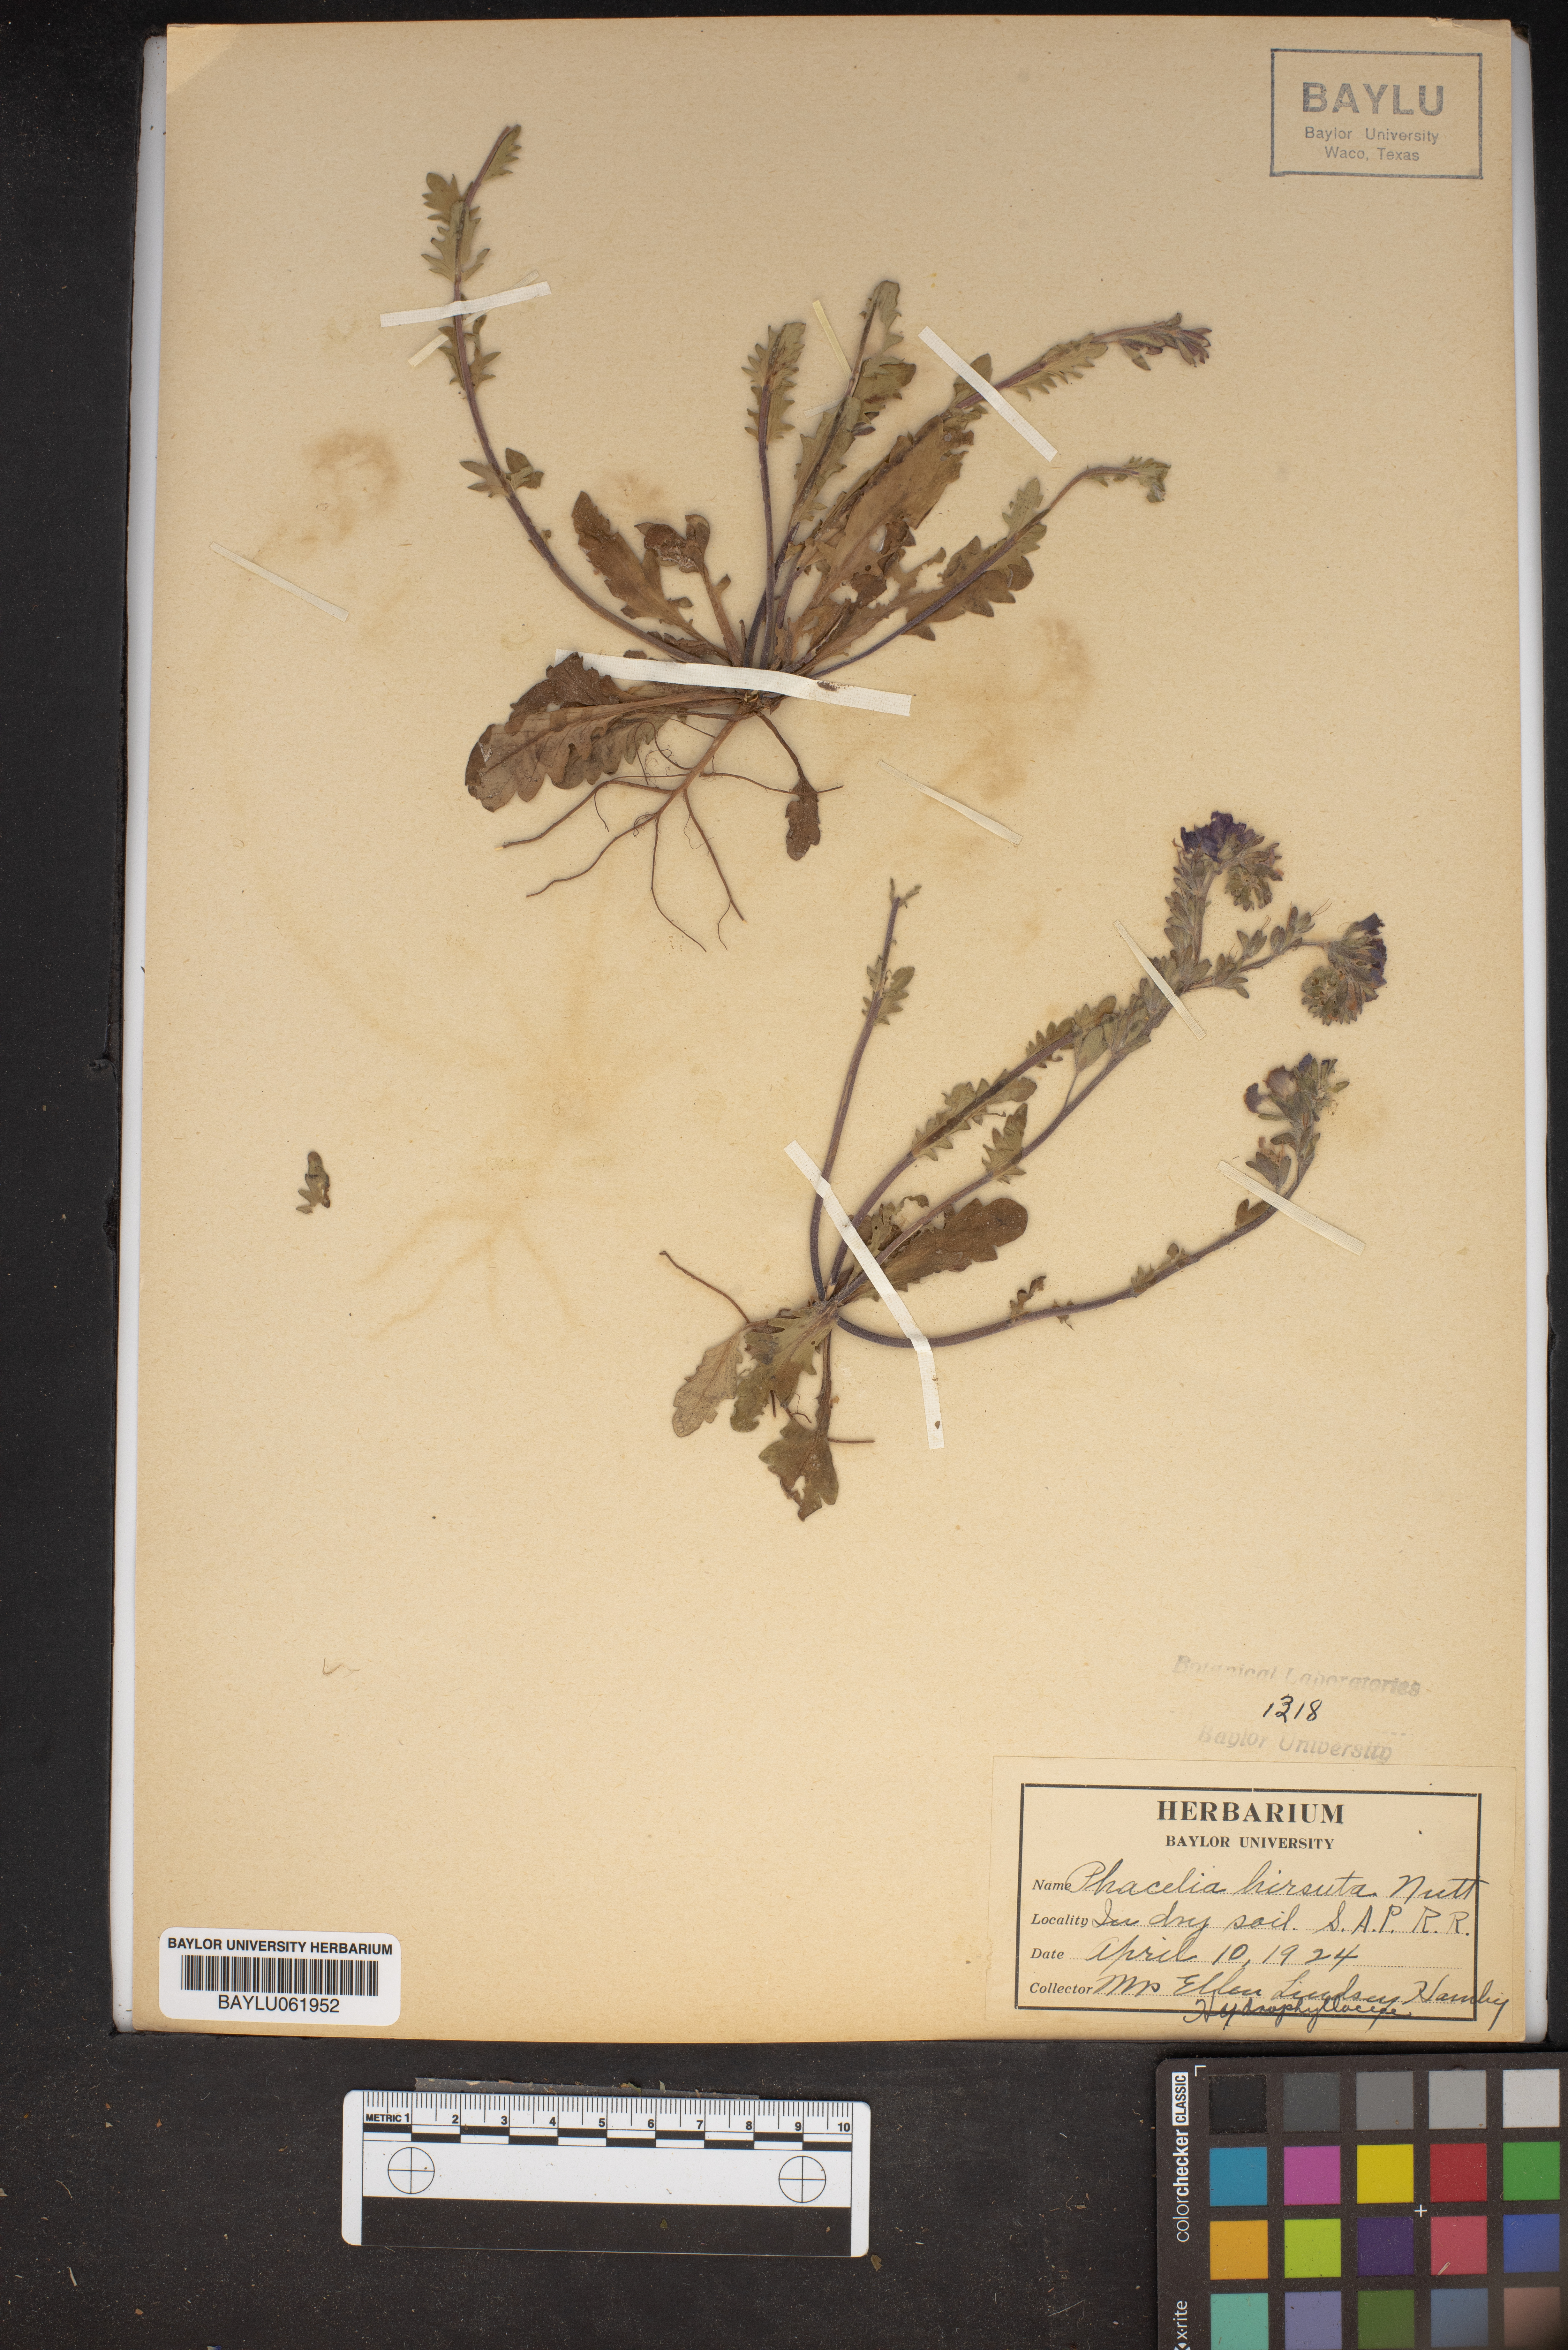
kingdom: Plantae
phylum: Tracheophyta
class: Magnoliopsida
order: Boraginales
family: Hydrophyllaceae
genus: Phacelia
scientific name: Phacelia hirsuta
